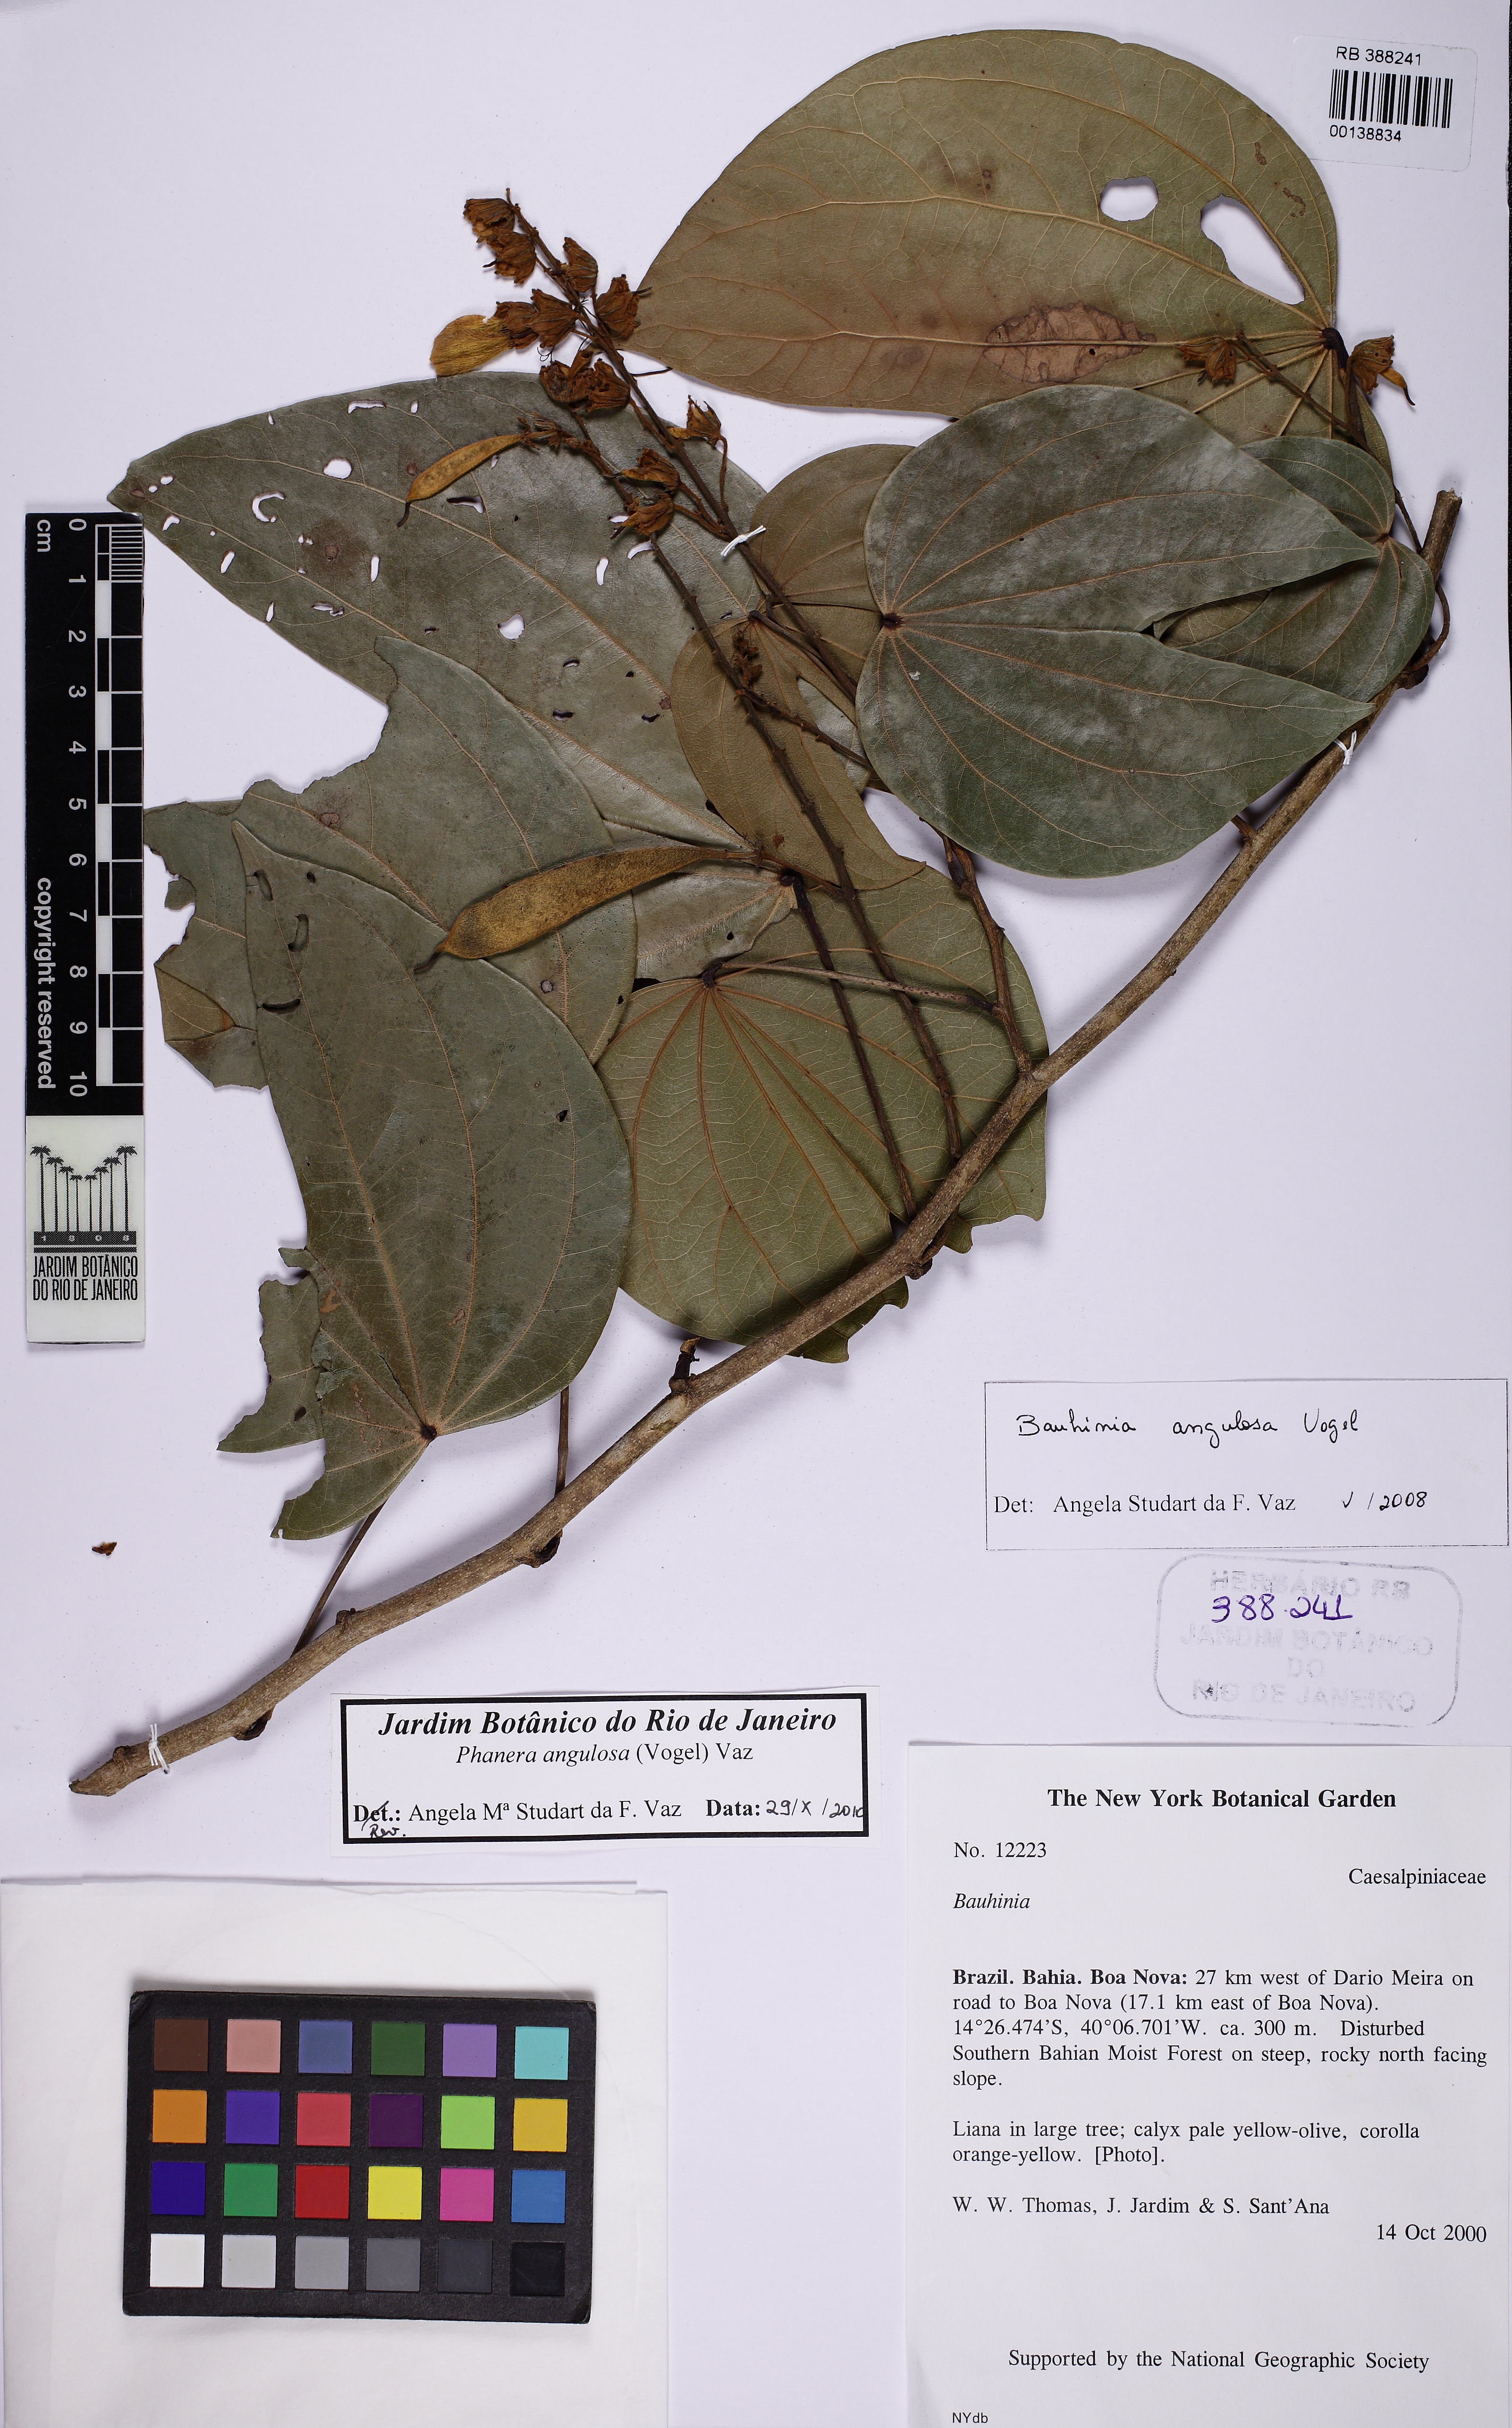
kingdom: Plantae
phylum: Tracheophyta
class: Magnoliopsida
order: Fabales
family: Fabaceae
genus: Schnella
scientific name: Schnella angulosa
